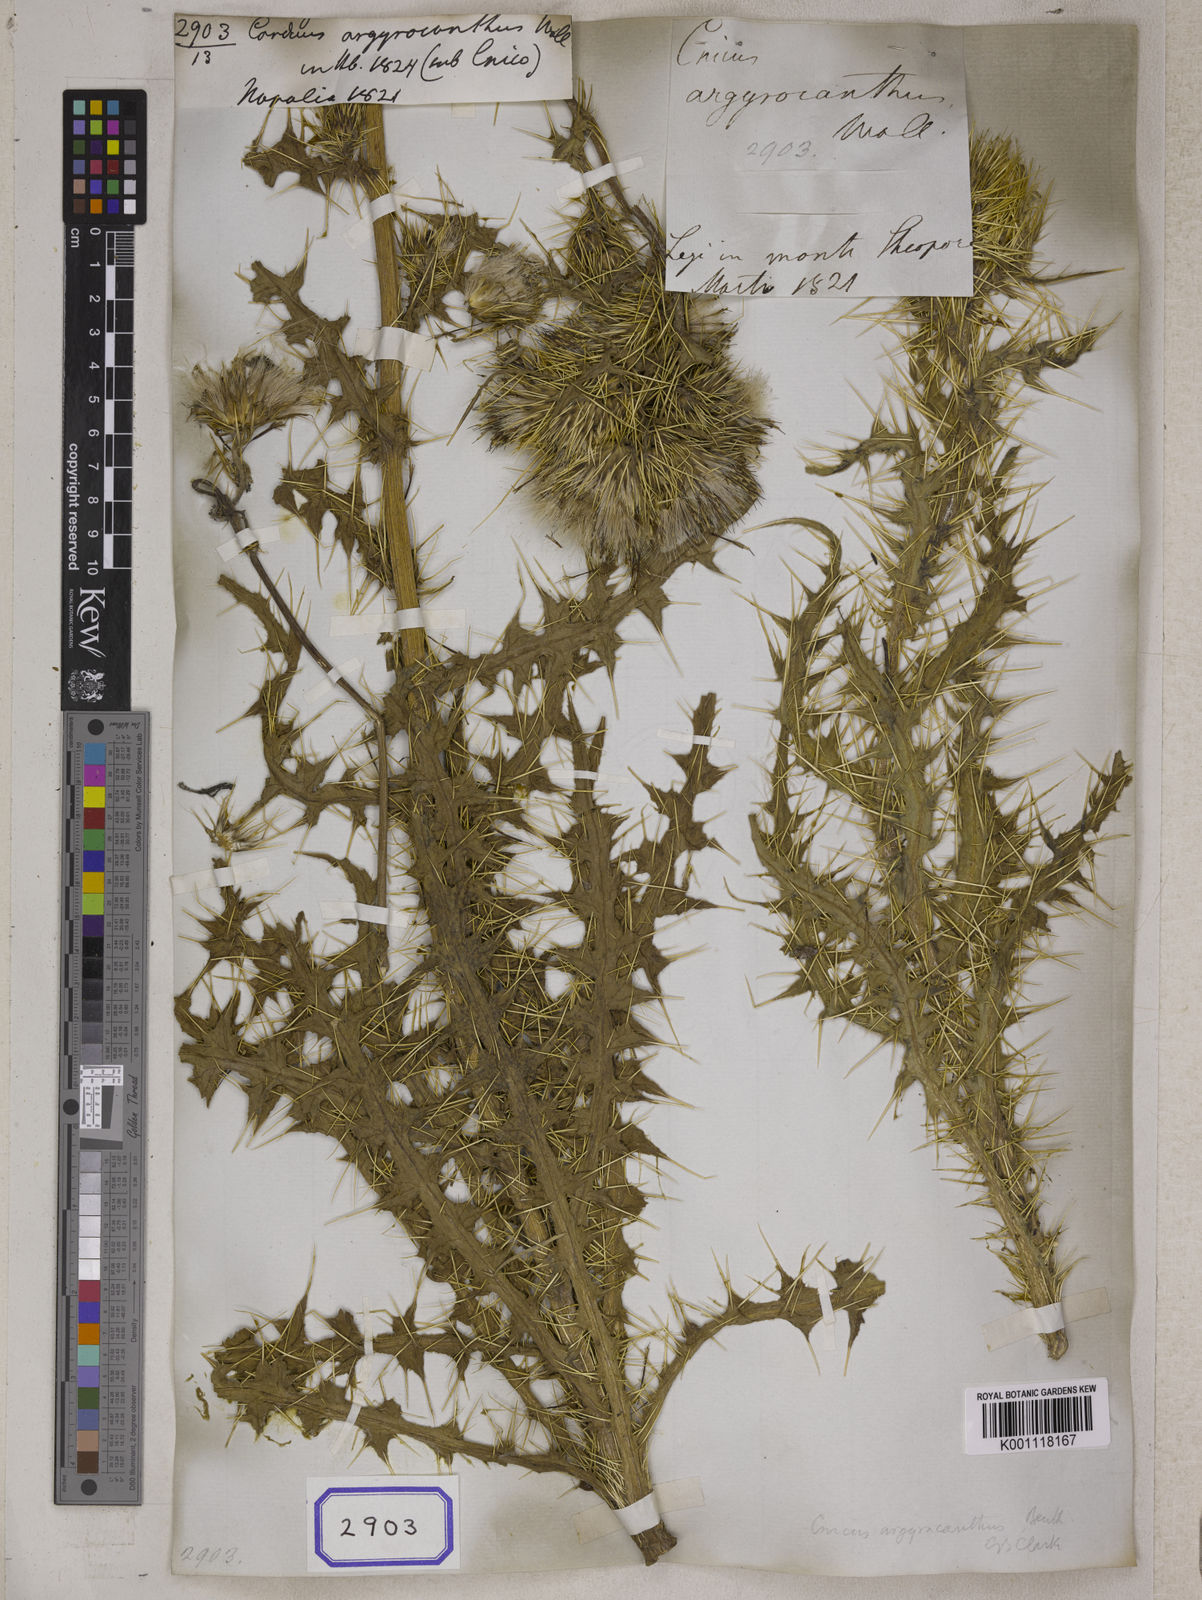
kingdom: Plantae
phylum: Tracheophyta
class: Magnoliopsida
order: Asterales
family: Asteraceae
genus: Cirsium
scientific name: Cirsium argyracanthum
